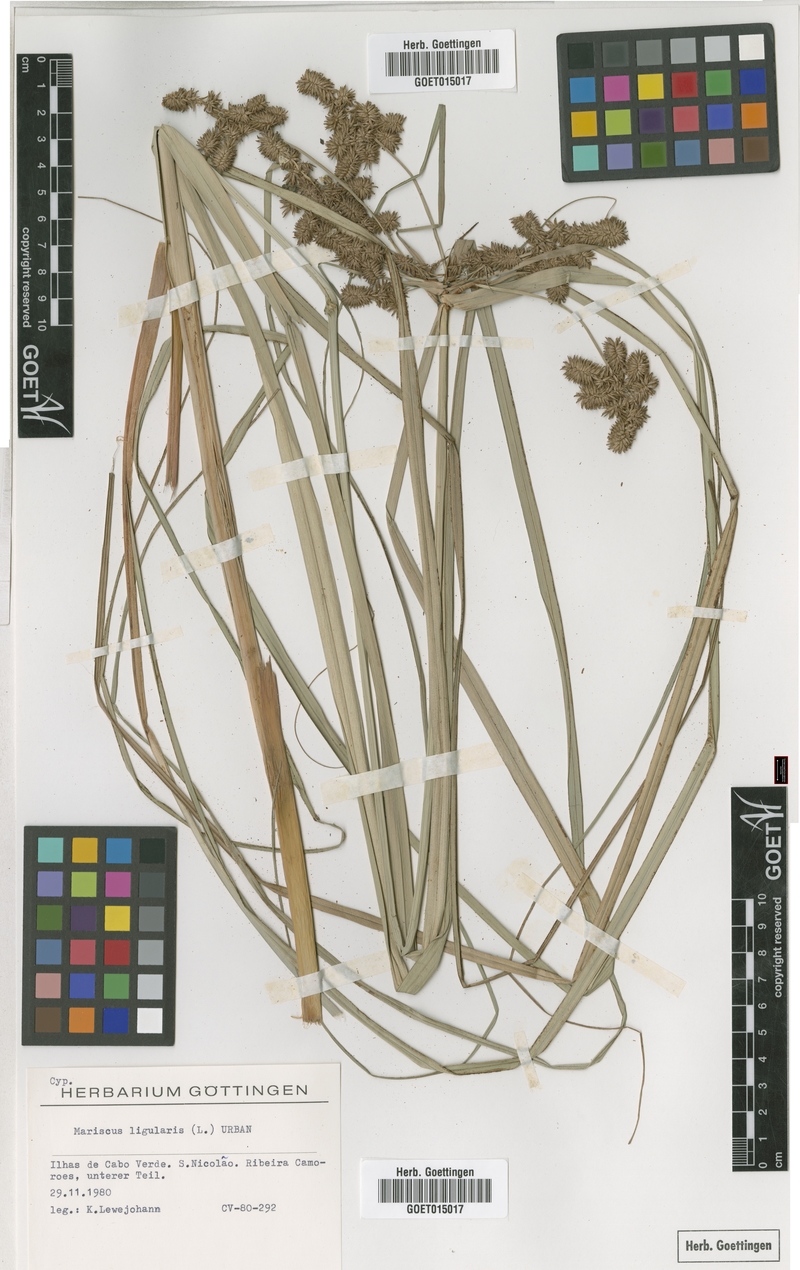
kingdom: Plantae
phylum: Tracheophyta
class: Liliopsida
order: Poales
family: Cyperaceae
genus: Cyperus
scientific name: Cyperus ligularis
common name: Swamp flat sedge
